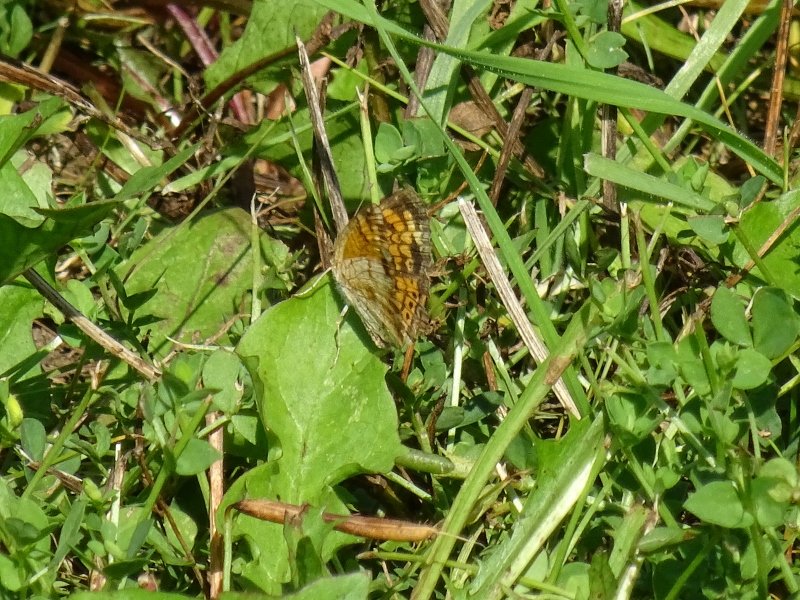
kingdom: Animalia
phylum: Arthropoda
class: Insecta
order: Lepidoptera
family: Nymphalidae
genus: Phyciodes
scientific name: Phyciodes tharos
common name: Pearl Crescent
